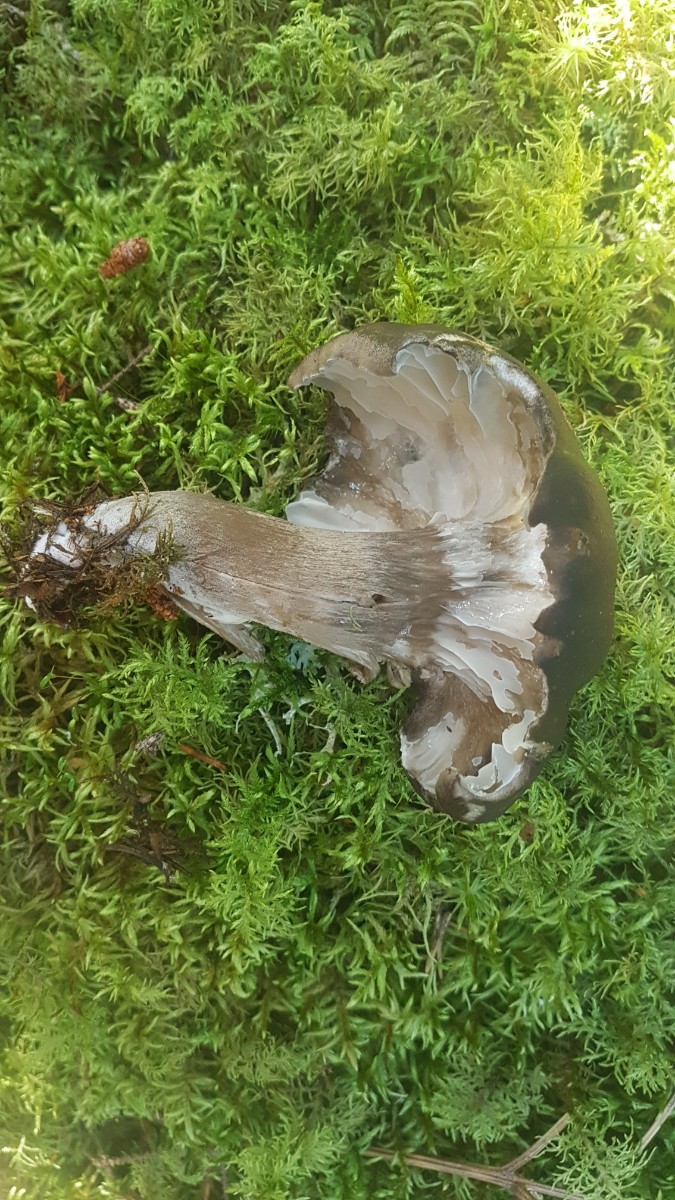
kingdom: Fungi
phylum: Basidiomycota
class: Agaricomycetes
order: Agaricales
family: Hygrophoraceae
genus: Hygrophorus
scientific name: Hygrophorus camarophyllus
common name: sodbrun sneglehat
